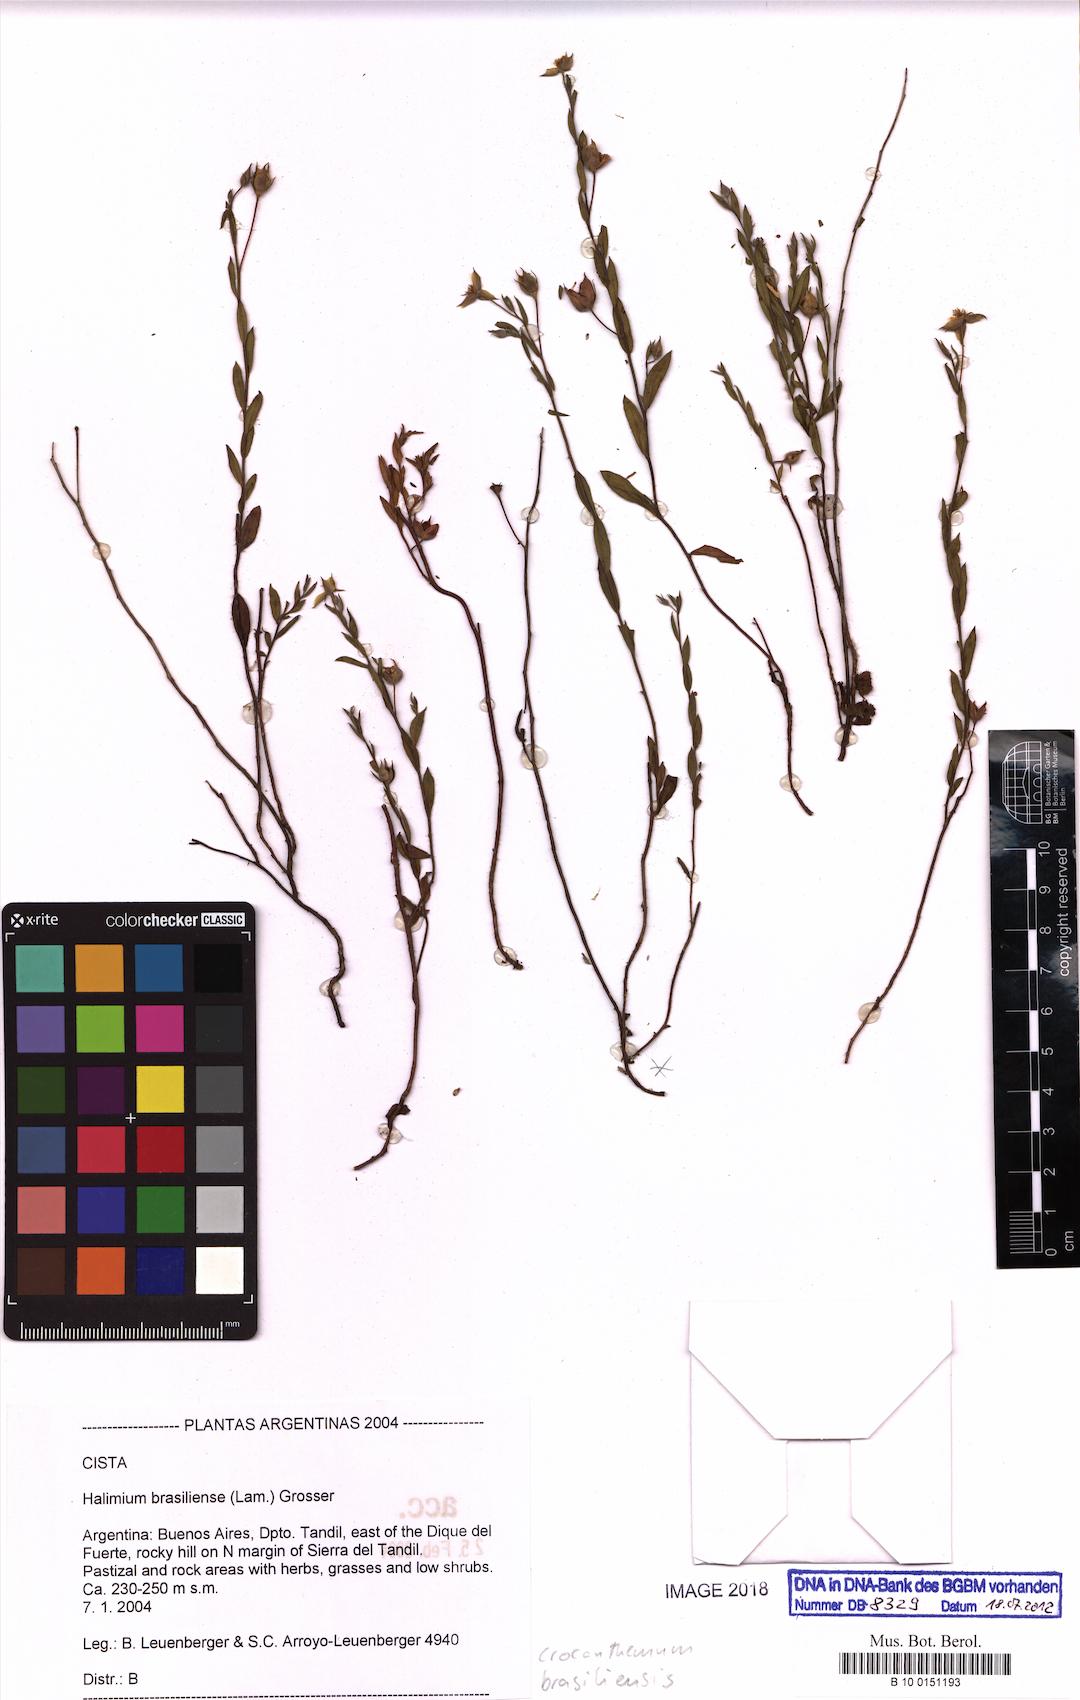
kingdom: Plantae
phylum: Tracheophyta
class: Magnoliopsida
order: Malvales
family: Cistaceae
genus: Crocanthemum
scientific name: Crocanthemum brasiliensis
